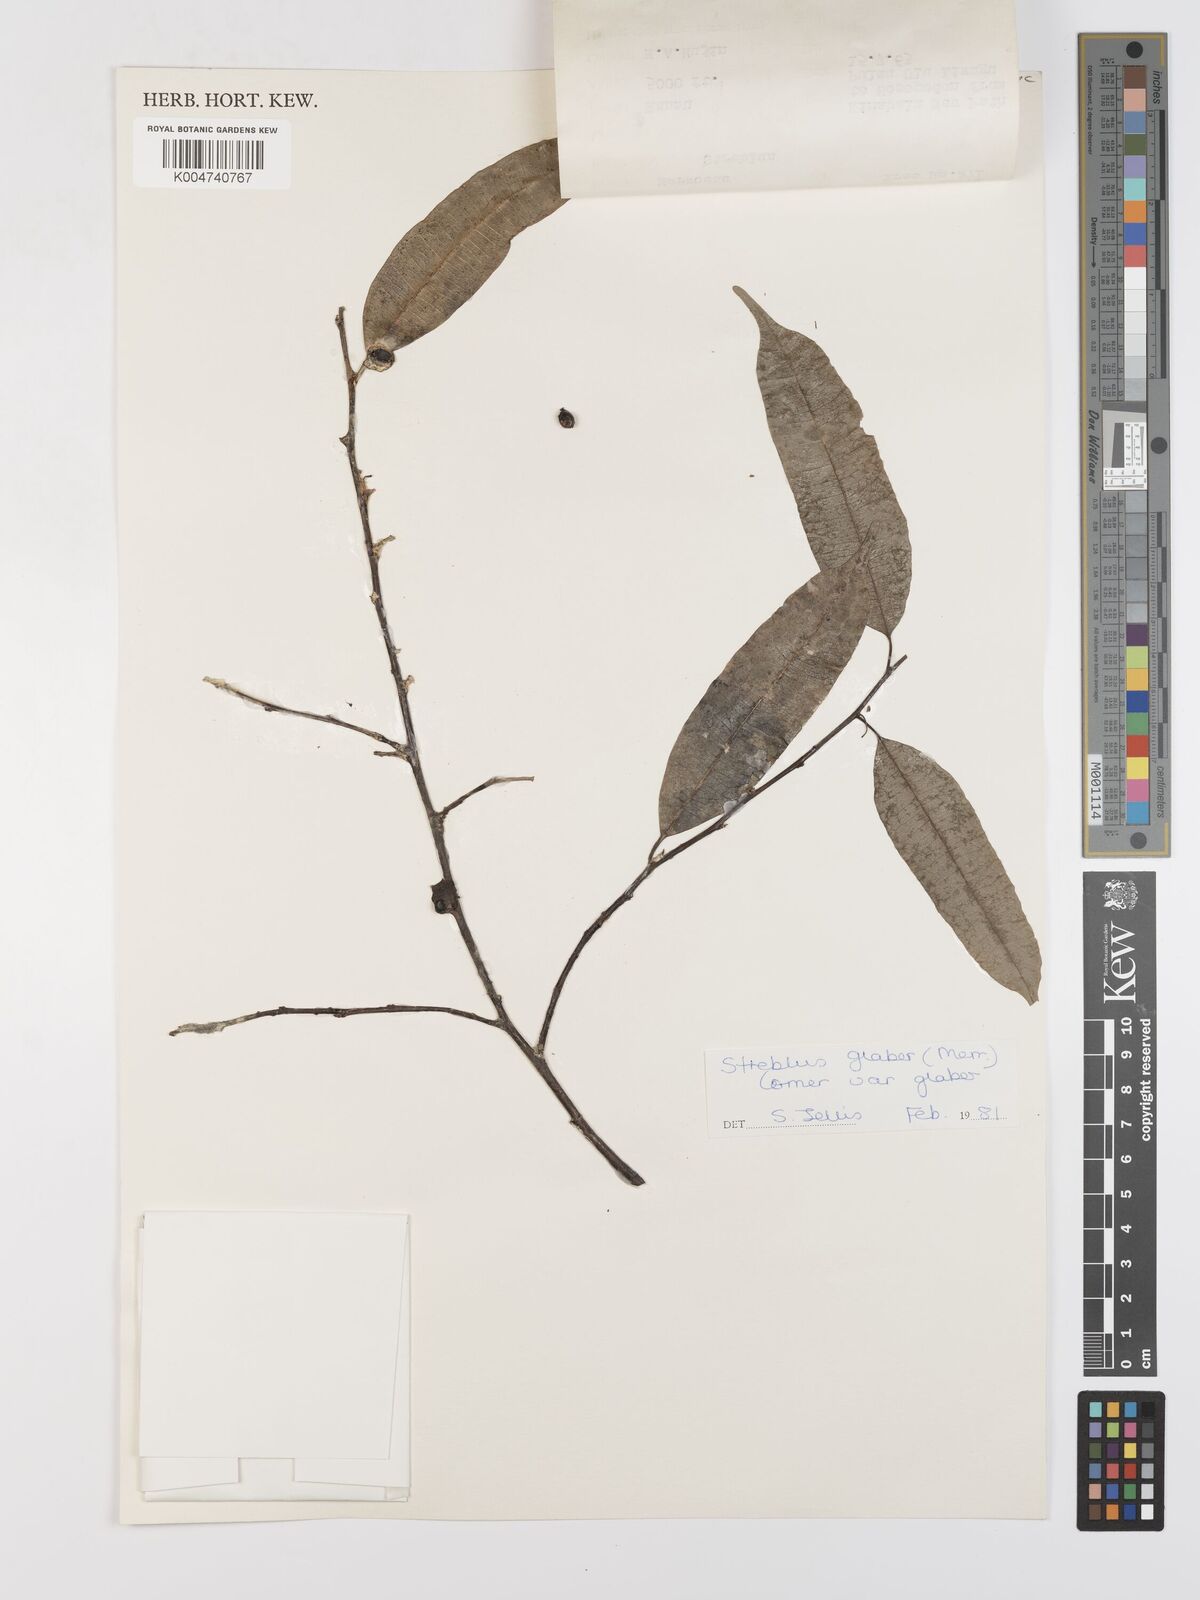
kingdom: Plantae
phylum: Tracheophyta
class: Magnoliopsida
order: Rosales
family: Moraceae
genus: Paratrophis
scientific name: Paratrophis glabra
